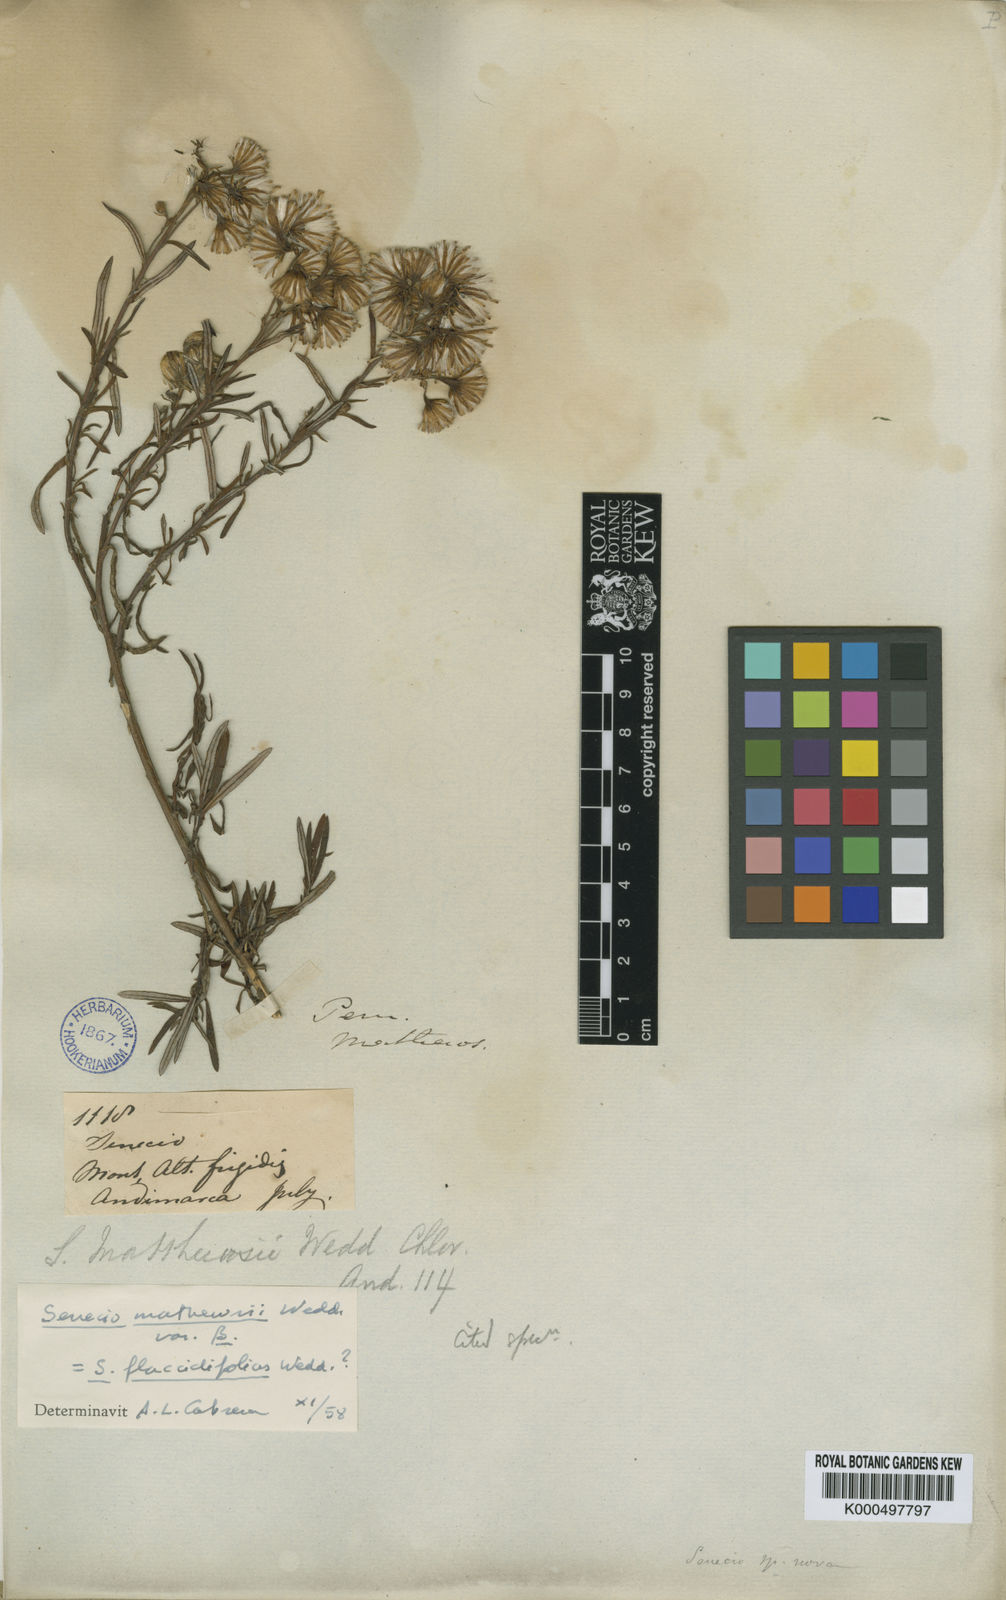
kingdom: Plantae
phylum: Tracheophyta
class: Magnoliopsida
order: Asterales
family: Asteraceae
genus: Senecio
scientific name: Senecio mathewsii
